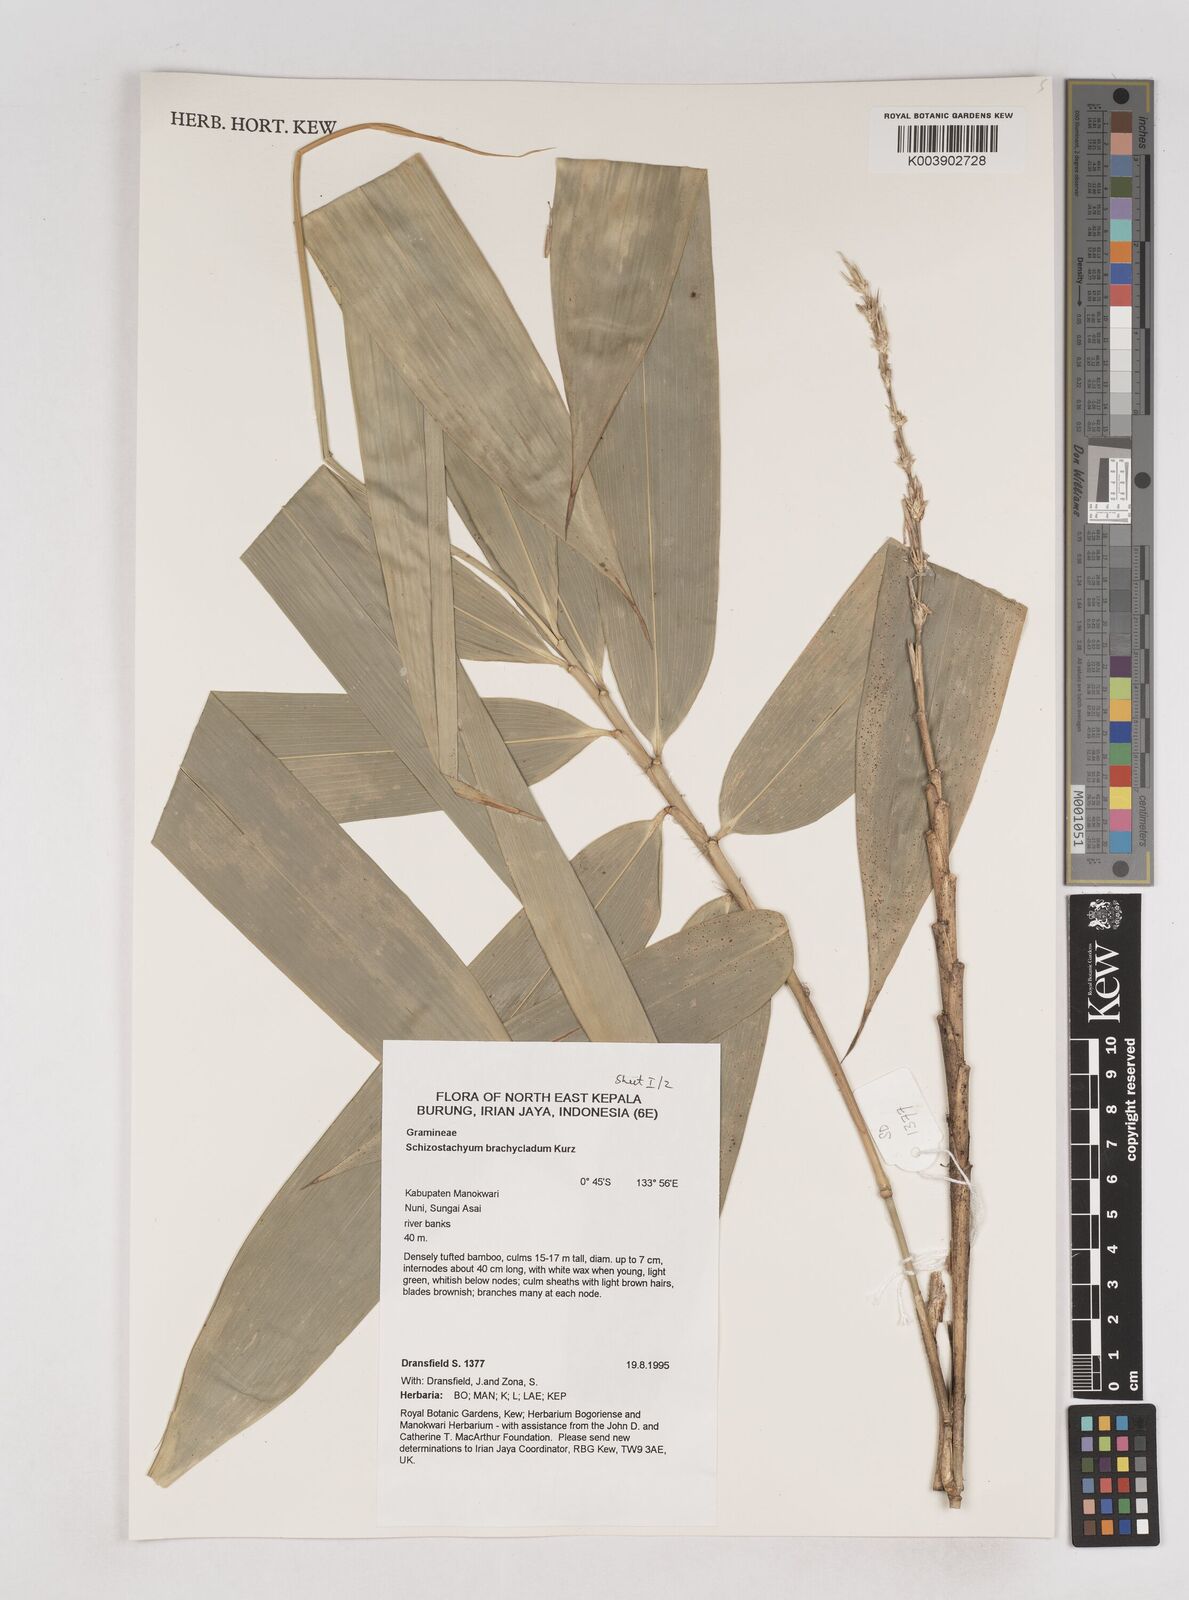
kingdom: Plantae
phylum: Tracheophyta
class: Liliopsida
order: Poales
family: Poaceae
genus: Schizostachyum
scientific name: Schizostachyum brachycladum
